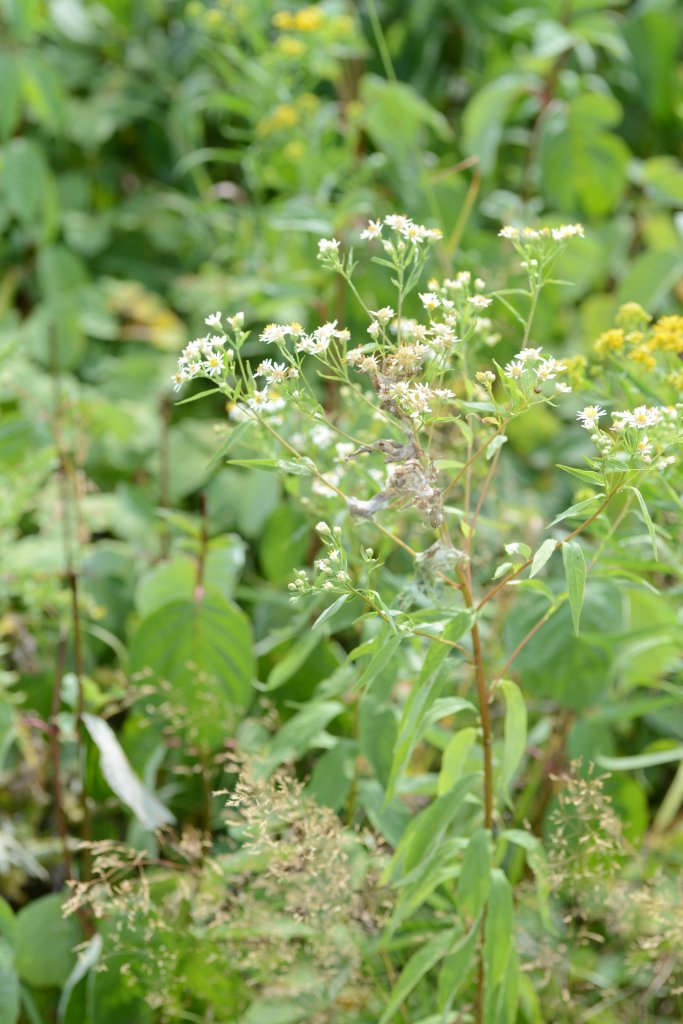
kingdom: Animalia
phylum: Arthropoda
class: Insecta
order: Lepidoptera
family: Nymphalidae
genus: Chlosyne
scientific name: Chlosyne nycteis
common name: Silvery Checkerspot
